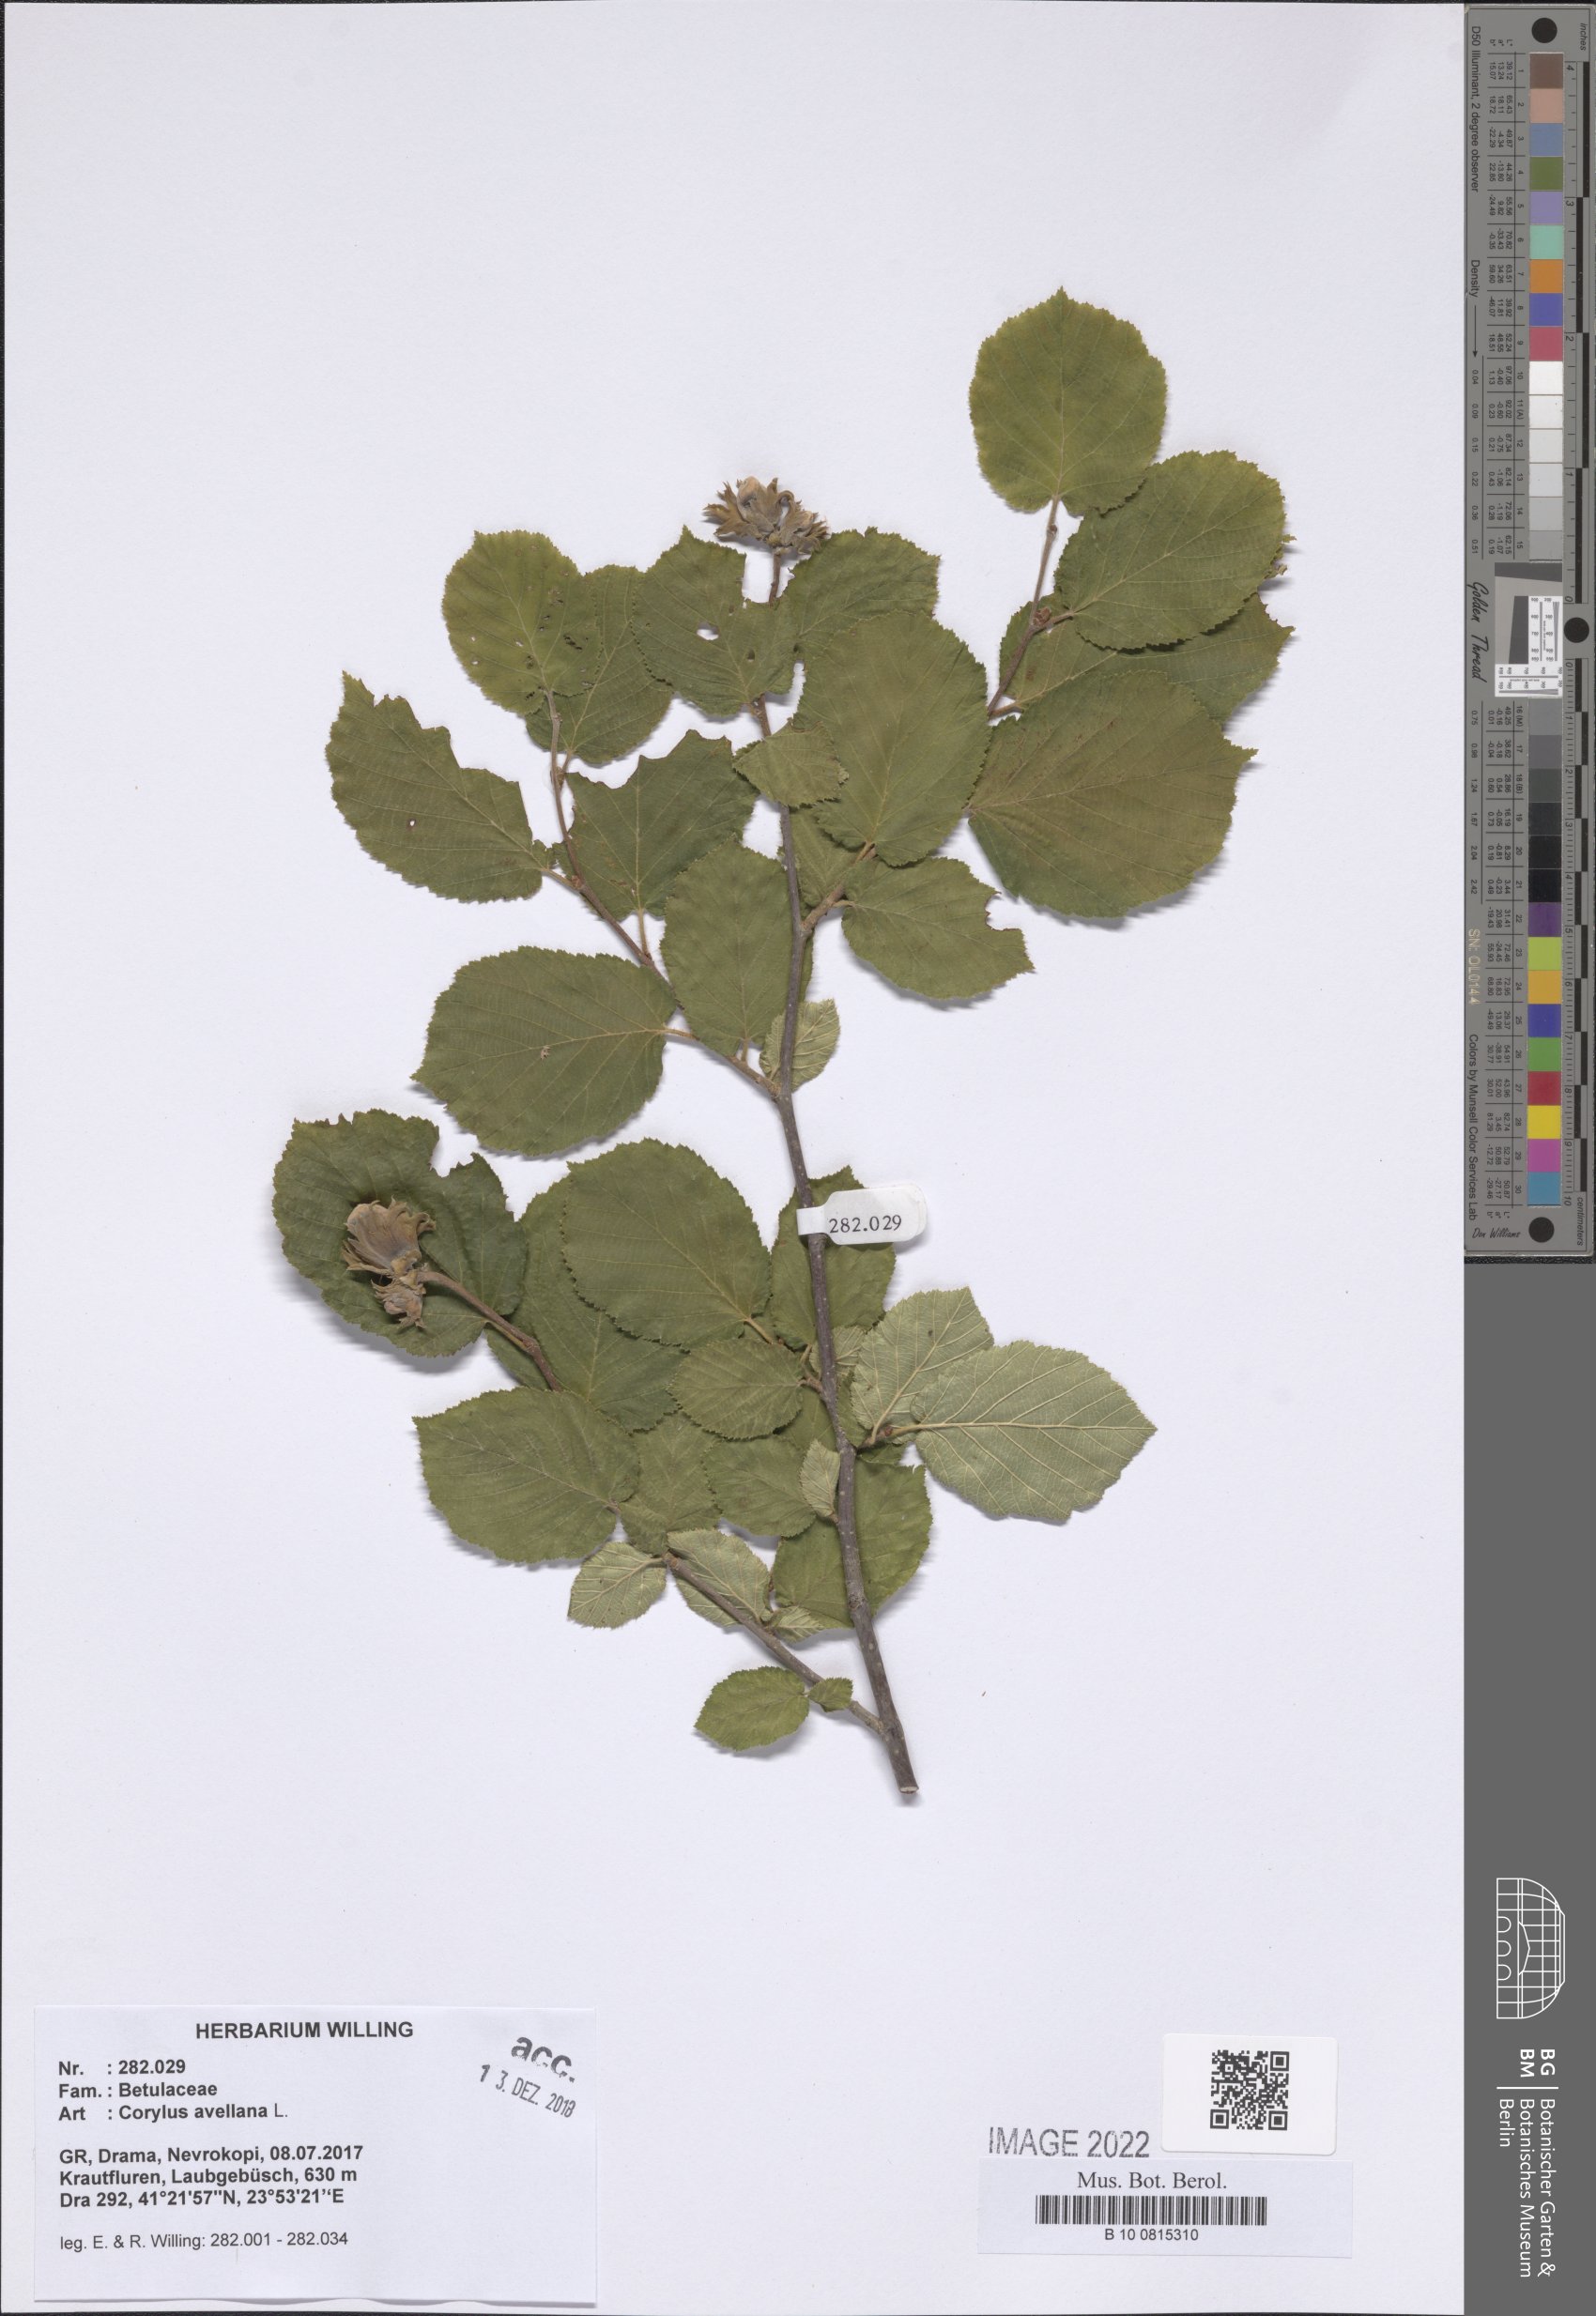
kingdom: Plantae
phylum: Tracheophyta
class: Magnoliopsida
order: Fagales
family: Betulaceae
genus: Corylus
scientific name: Corylus avellana
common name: European hazel
